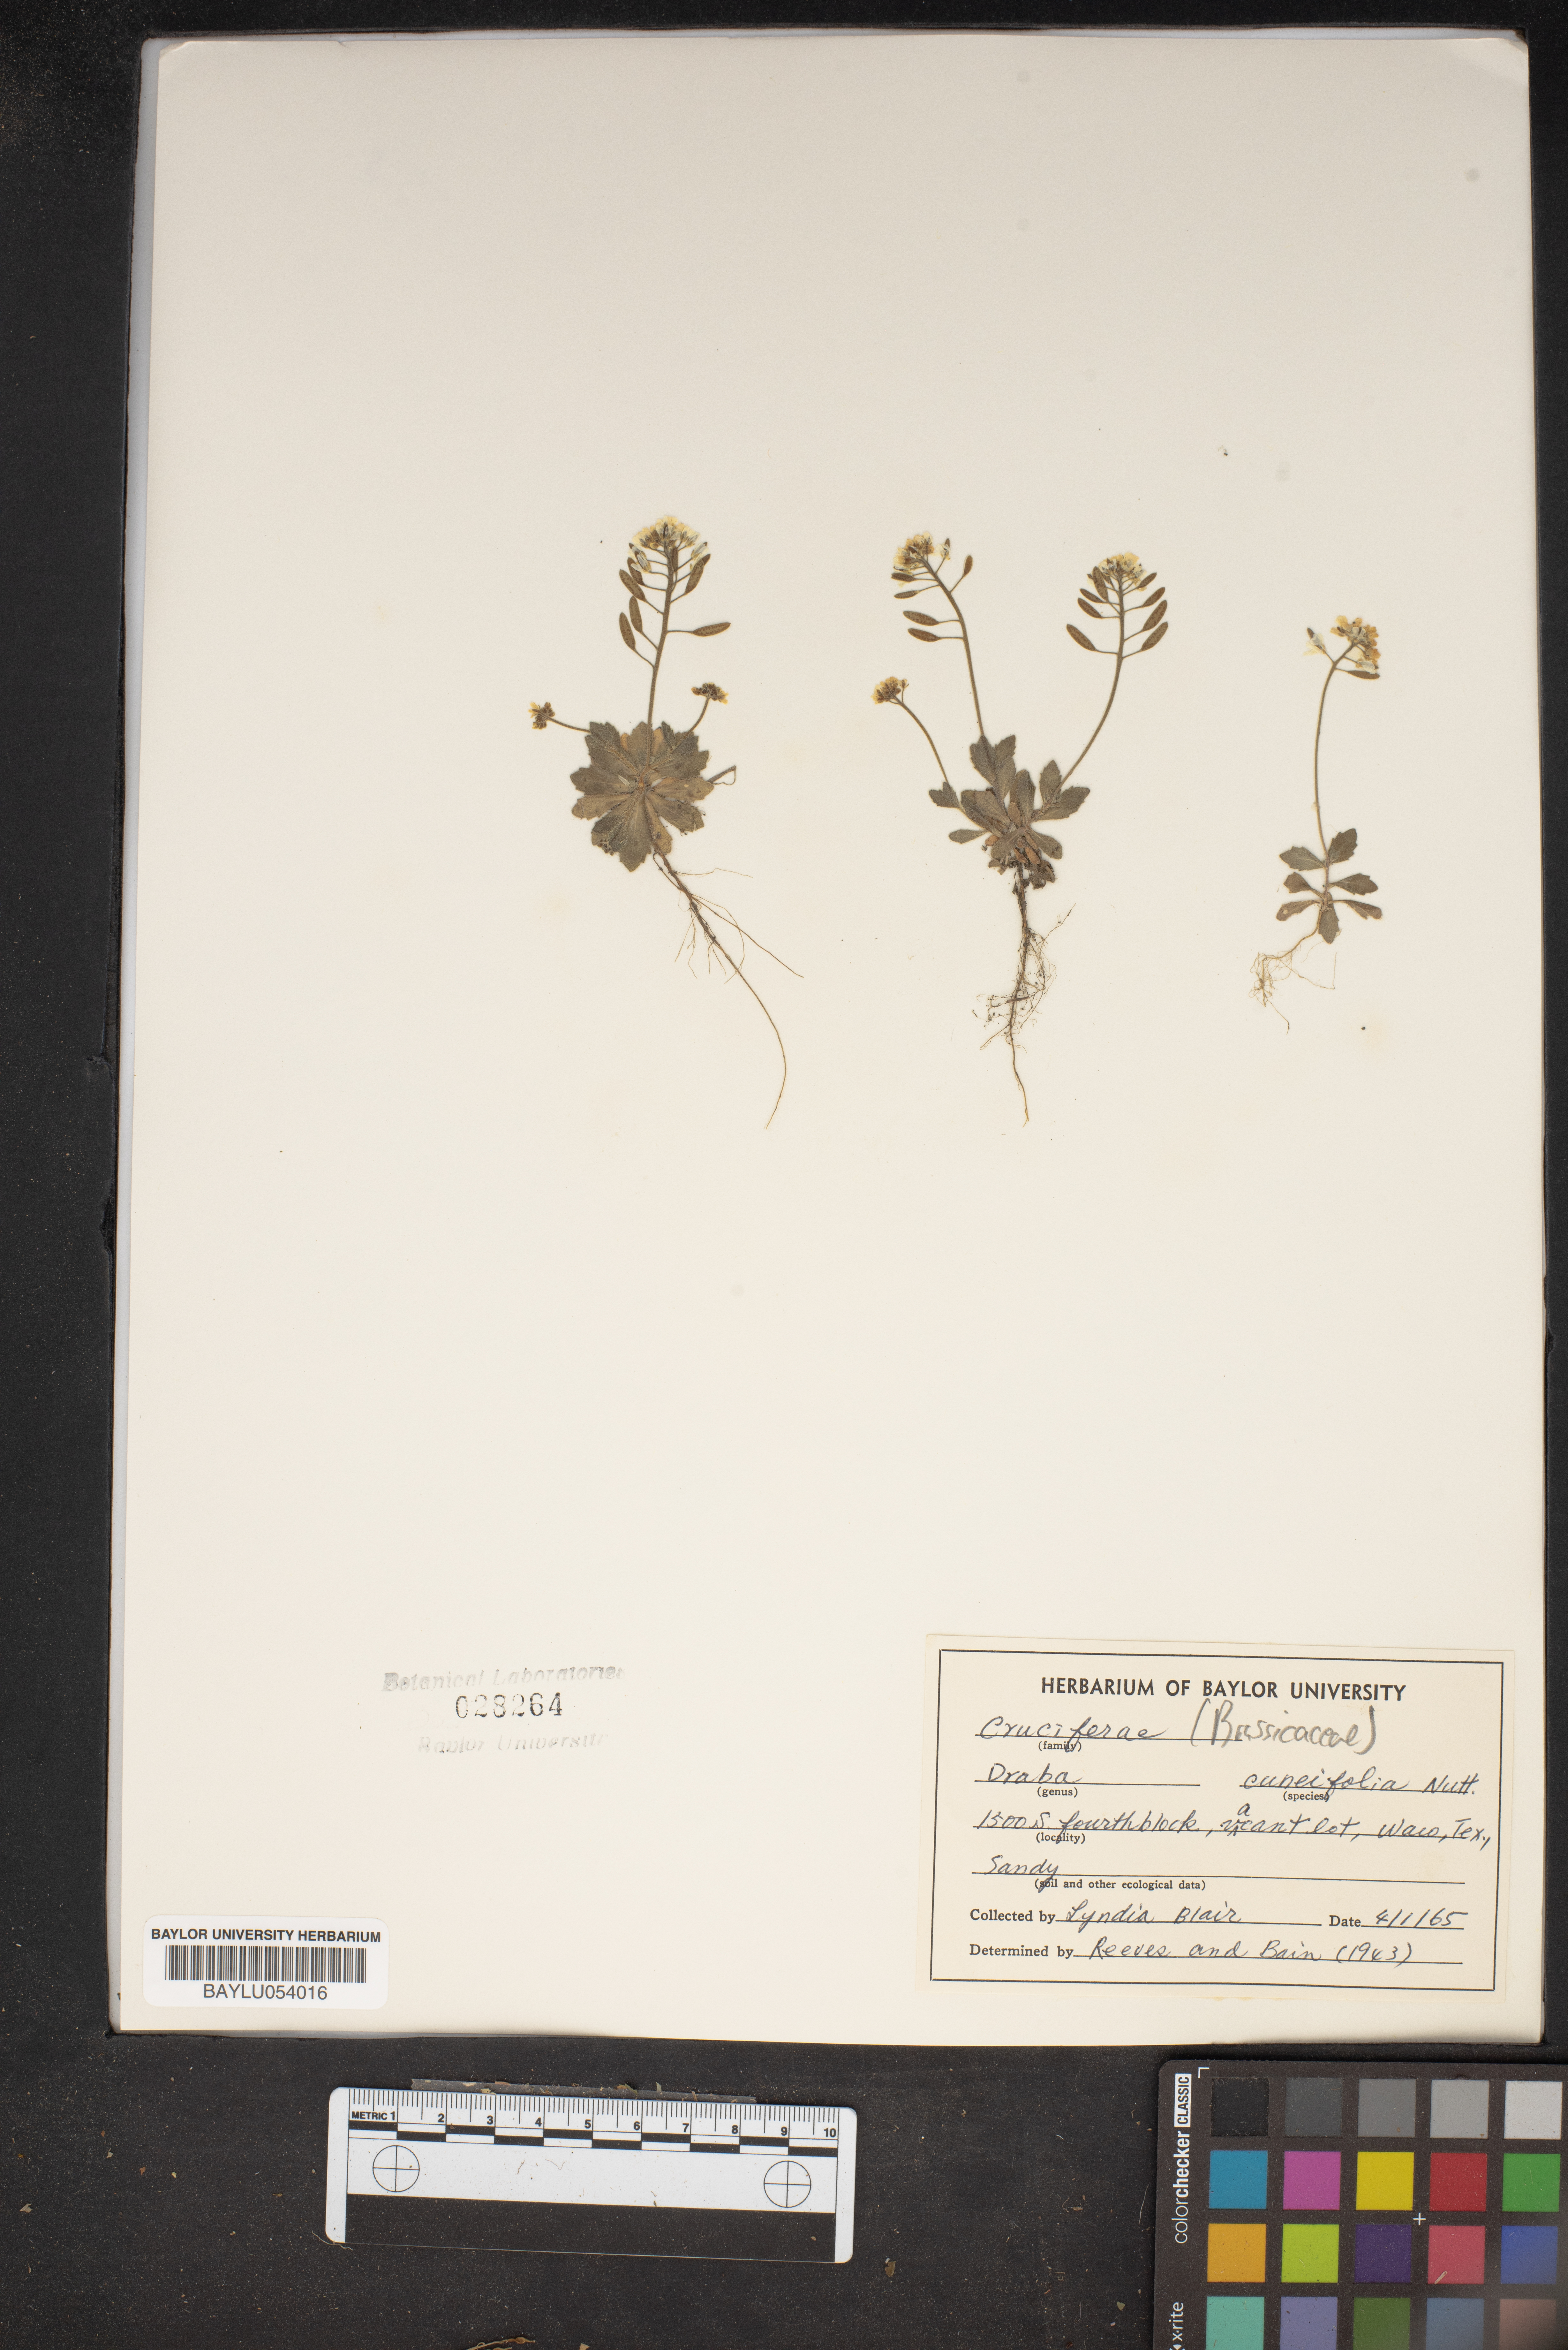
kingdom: Plantae
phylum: Tracheophyta
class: Magnoliopsida
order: Brassicales
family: Brassicaceae
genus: Tomostima
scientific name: Tomostima cuneifolia
